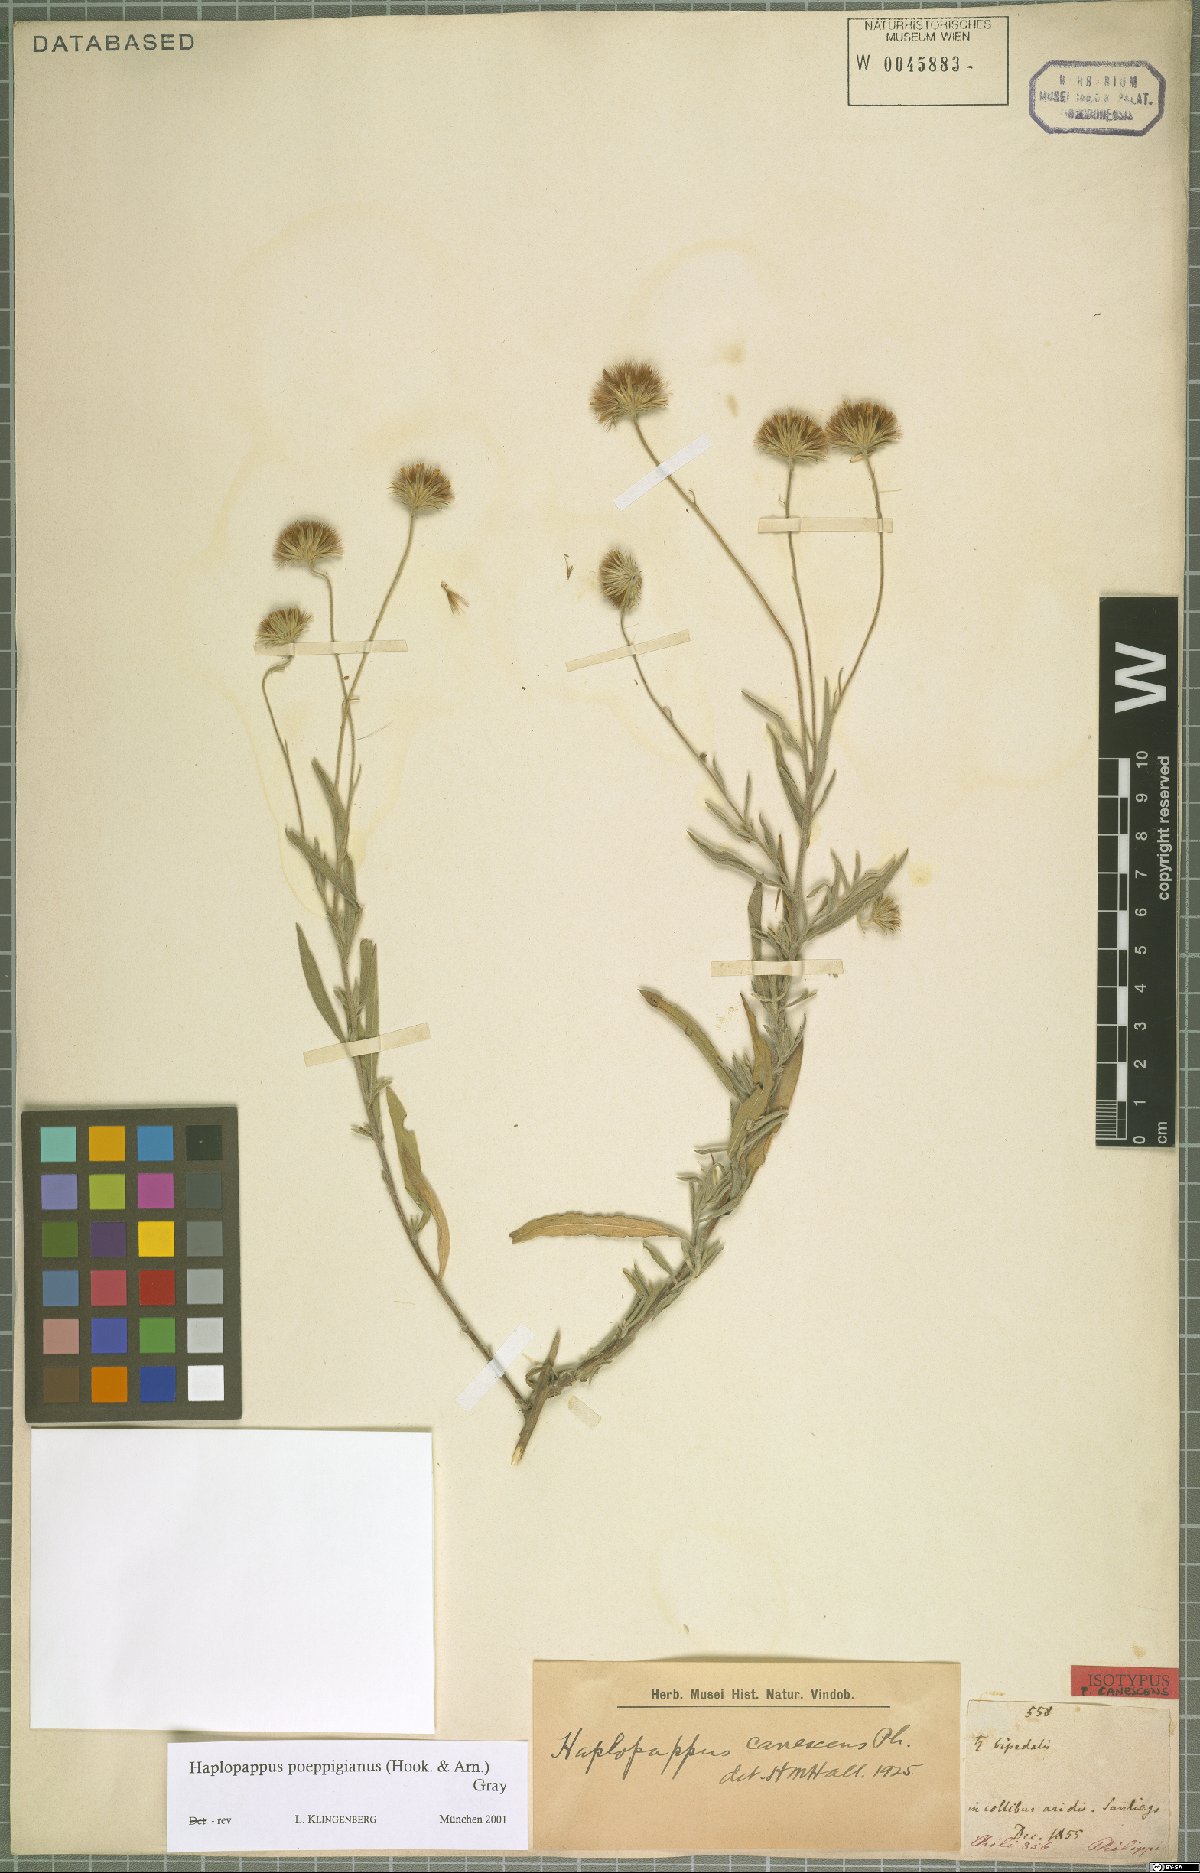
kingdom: Plantae
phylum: Tracheophyta
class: Magnoliopsida
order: Asterales
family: Asteraceae
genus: Haplopappus
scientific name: Haplopappus poeppigianus
